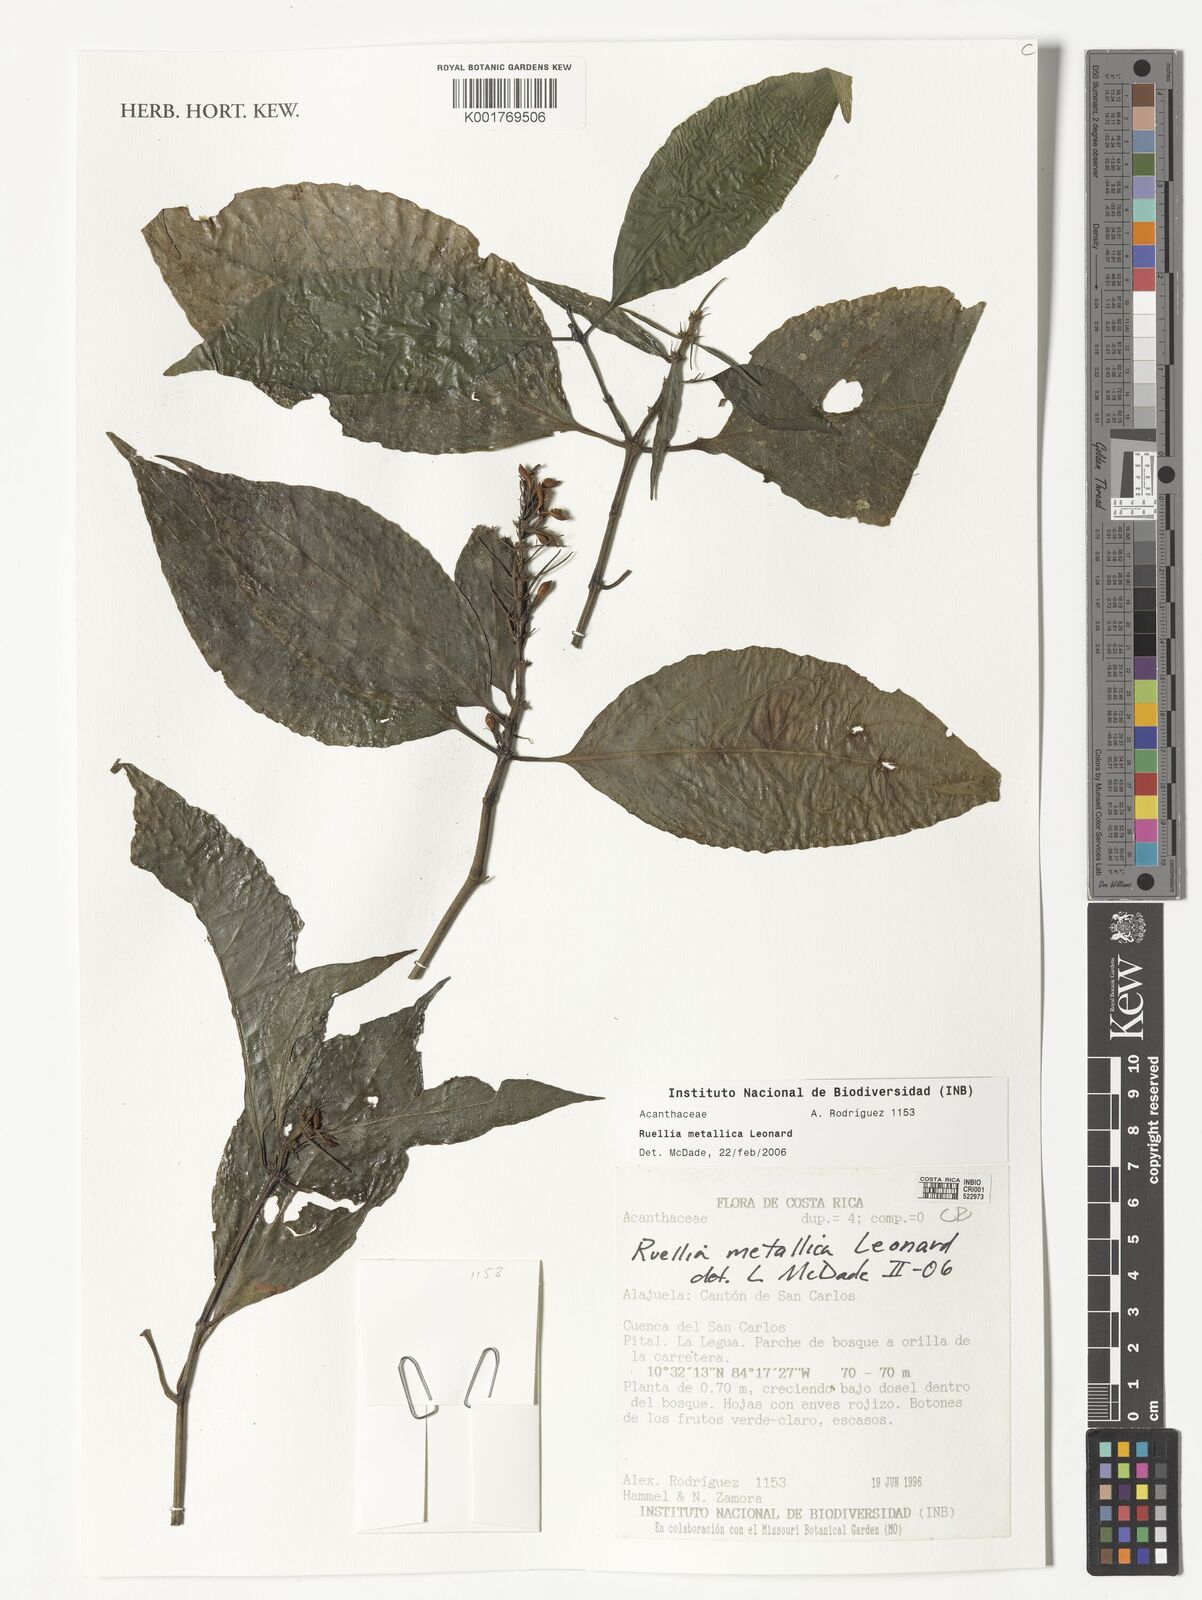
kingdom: Plantae
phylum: Tracheophyta
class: Magnoliopsida
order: Lamiales
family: Acanthaceae
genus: Ruellia
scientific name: Ruellia metallica
